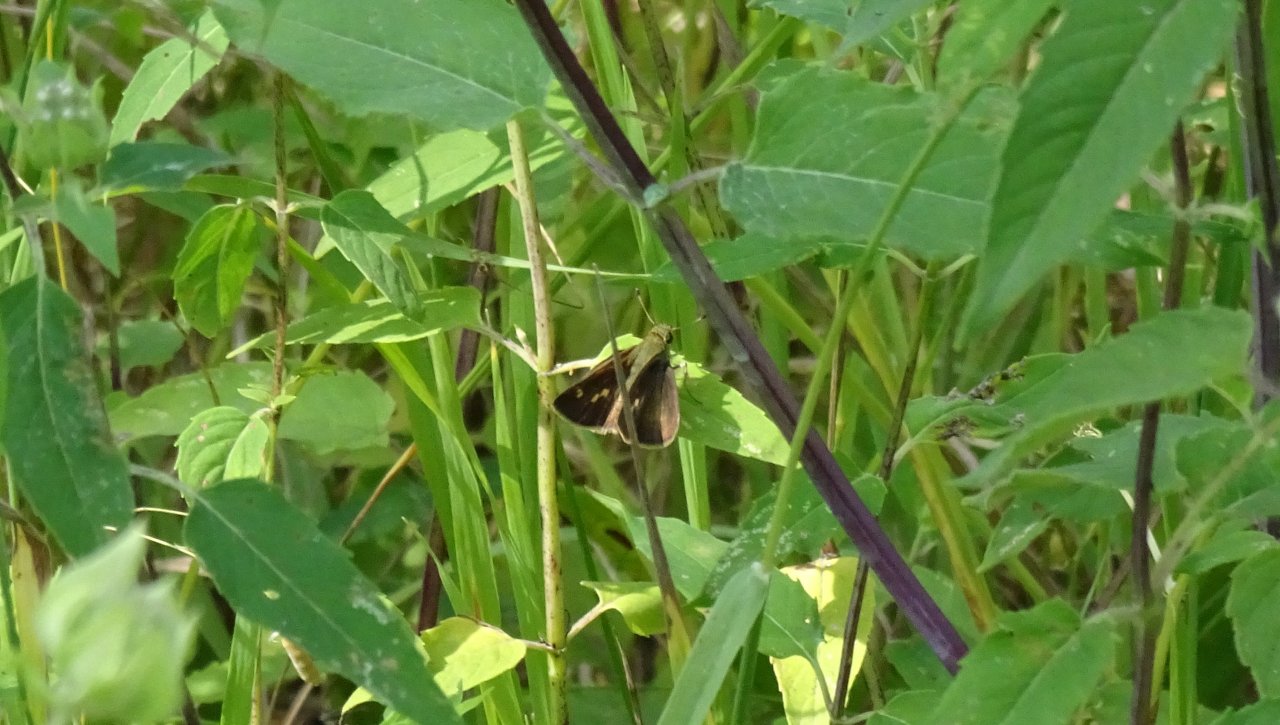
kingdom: Animalia
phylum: Arthropoda
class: Insecta
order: Lepidoptera
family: Hesperiidae
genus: Vernia
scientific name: Vernia verna
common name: Little Glassywing
